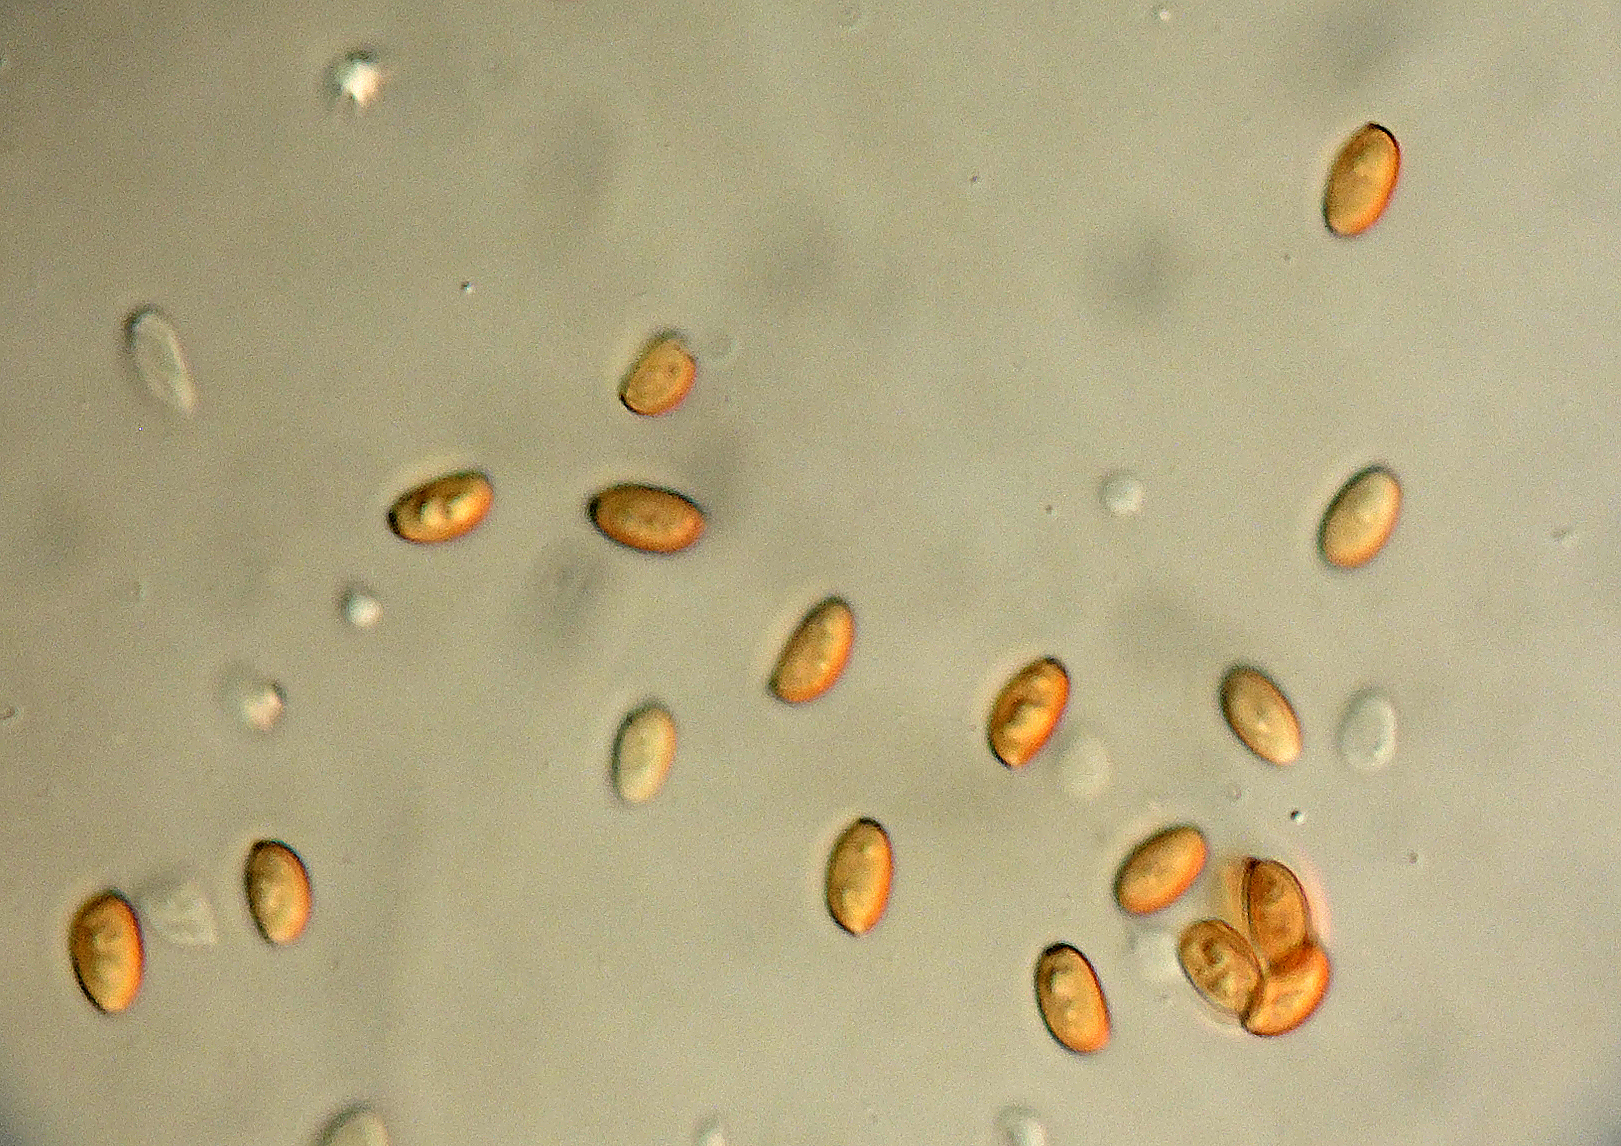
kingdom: Fungi
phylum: Basidiomycota
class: Agaricomycetes
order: Agaricales
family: Bolbitiaceae
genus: Pholiotina
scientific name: Pholiotina
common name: dansehat
